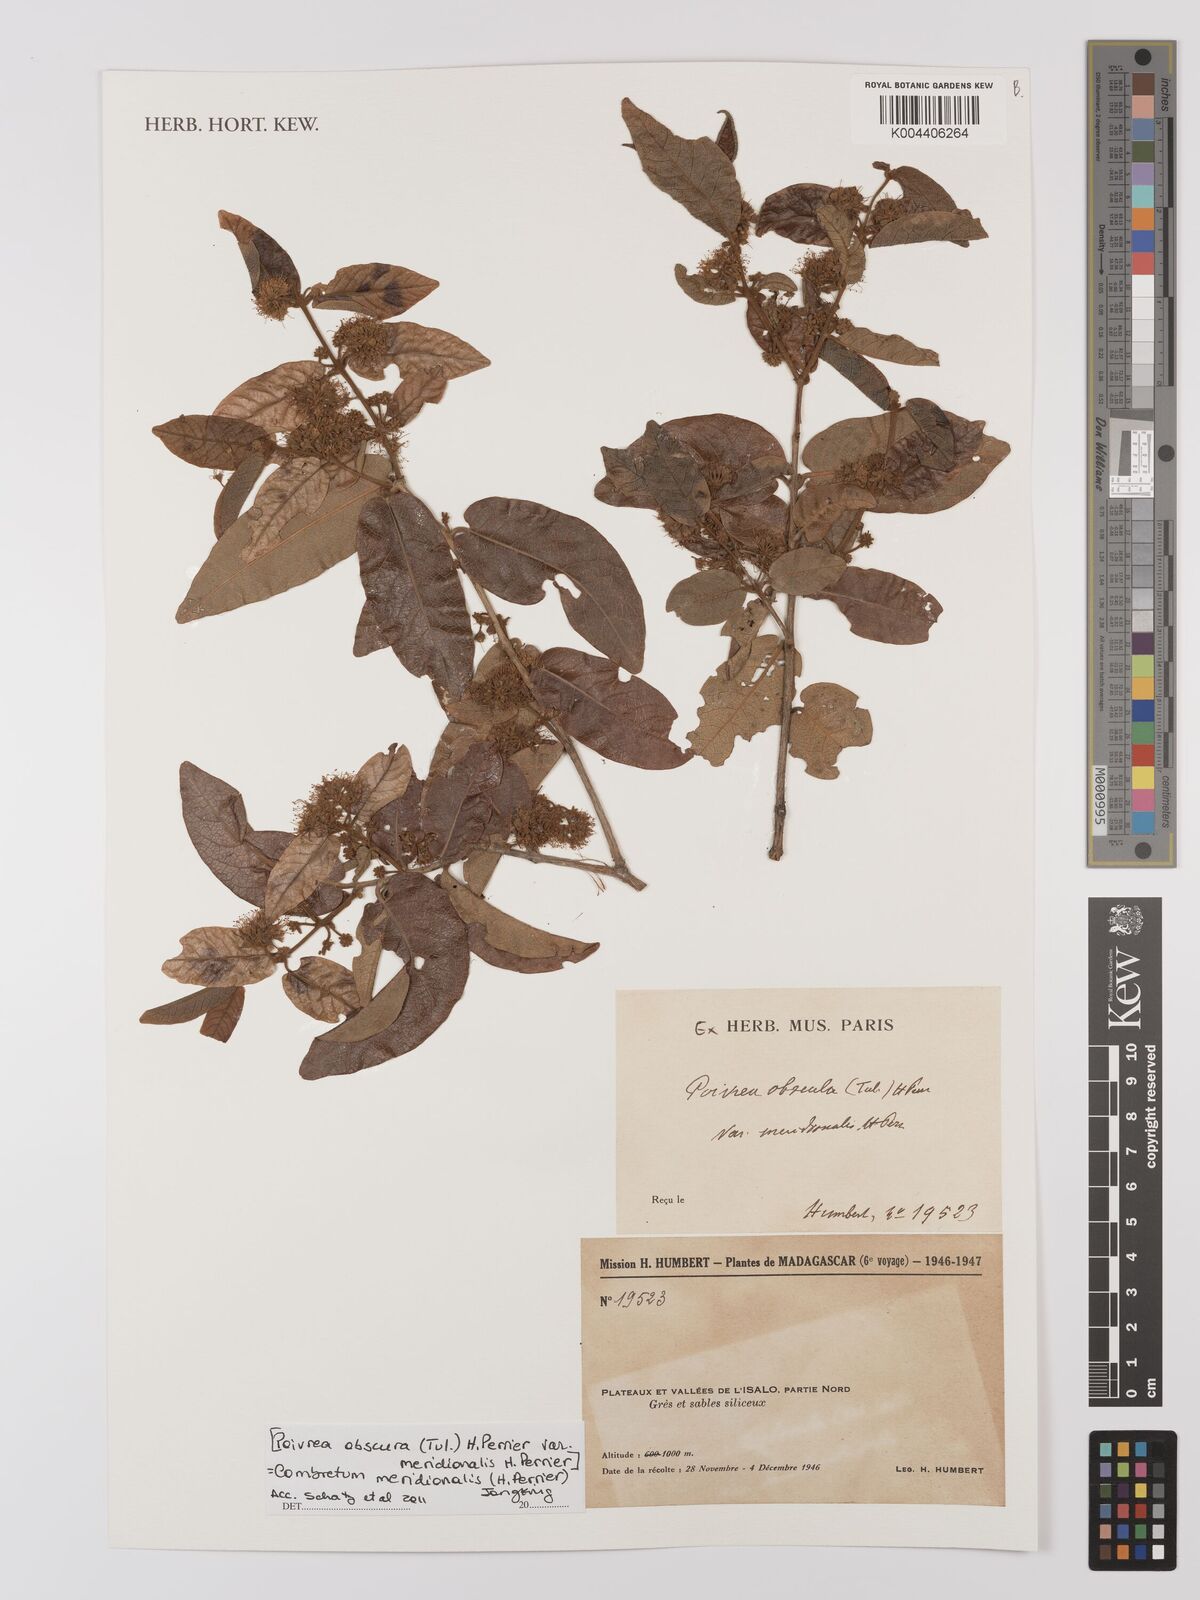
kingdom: Plantae
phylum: Tracheophyta
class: Magnoliopsida
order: Myrtales
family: Combretaceae
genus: Combretum
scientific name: Combretum meridionalis
